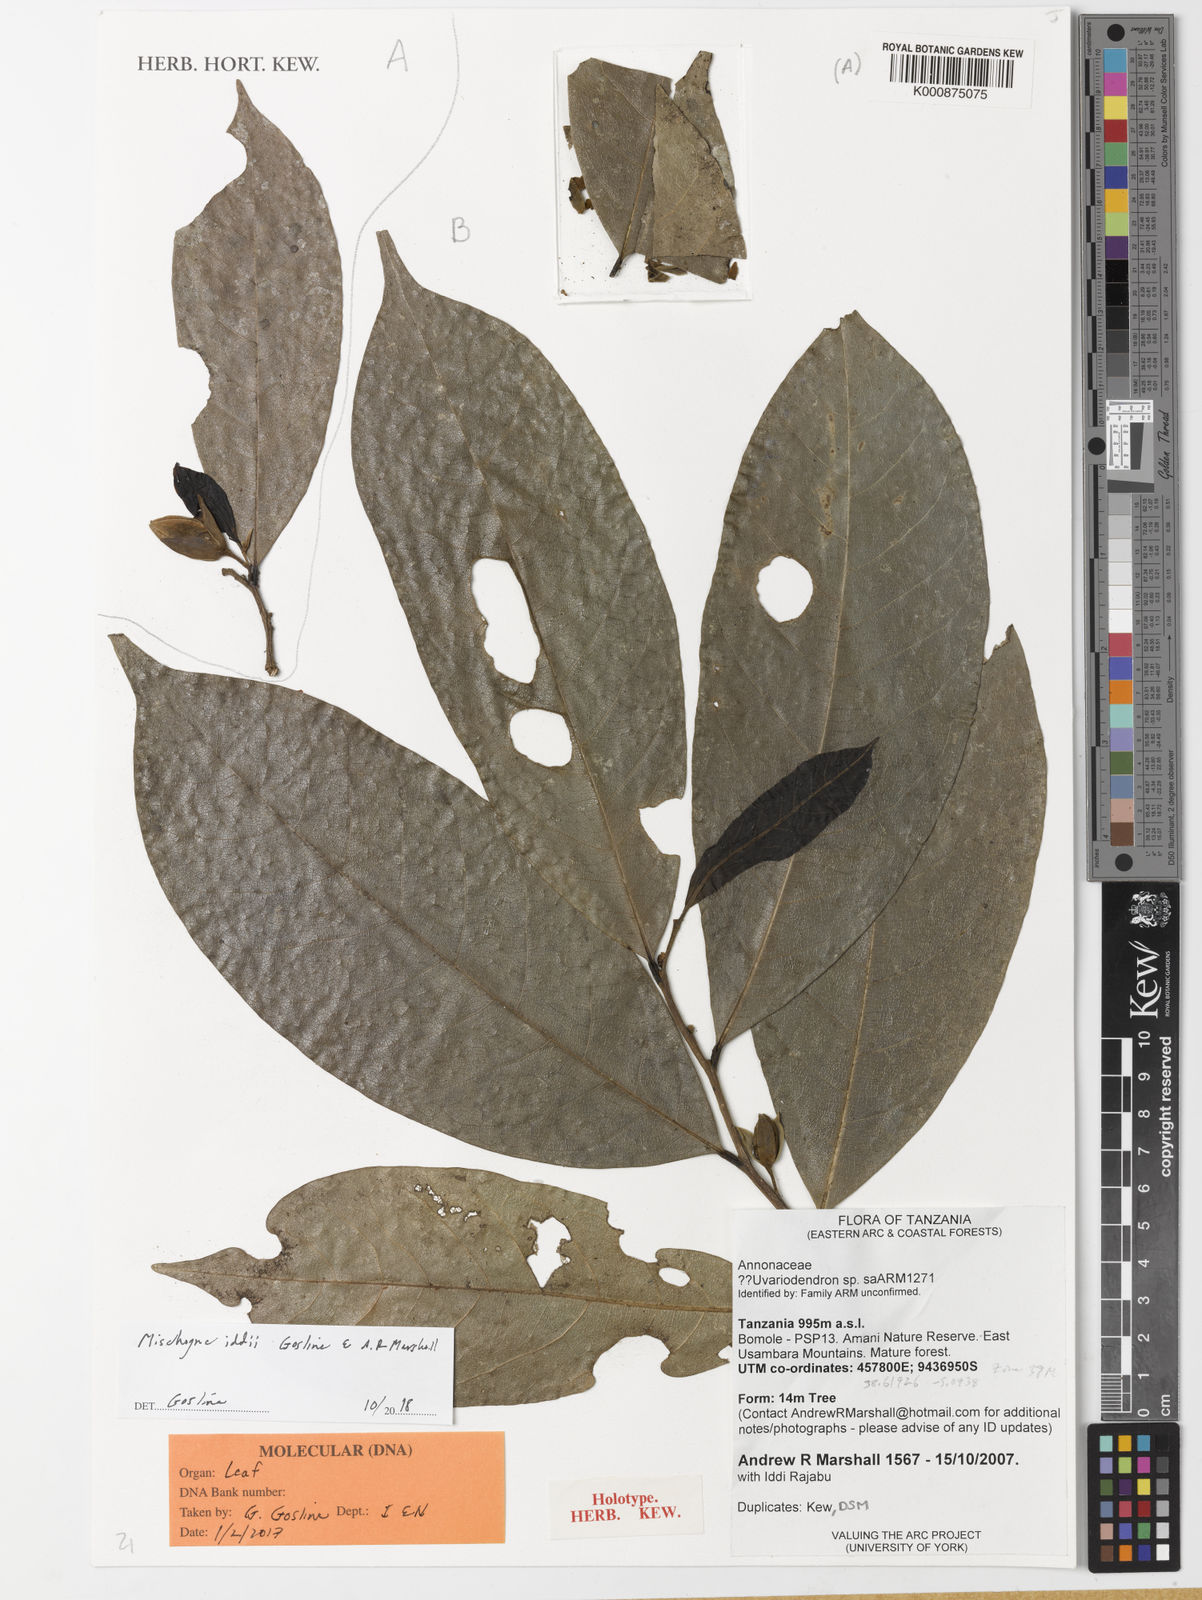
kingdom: Plantae
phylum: Tracheophyta
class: Magnoliopsida
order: Magnoliales
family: Annonaceae
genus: Mischogyne
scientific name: Mischogyne iddii
